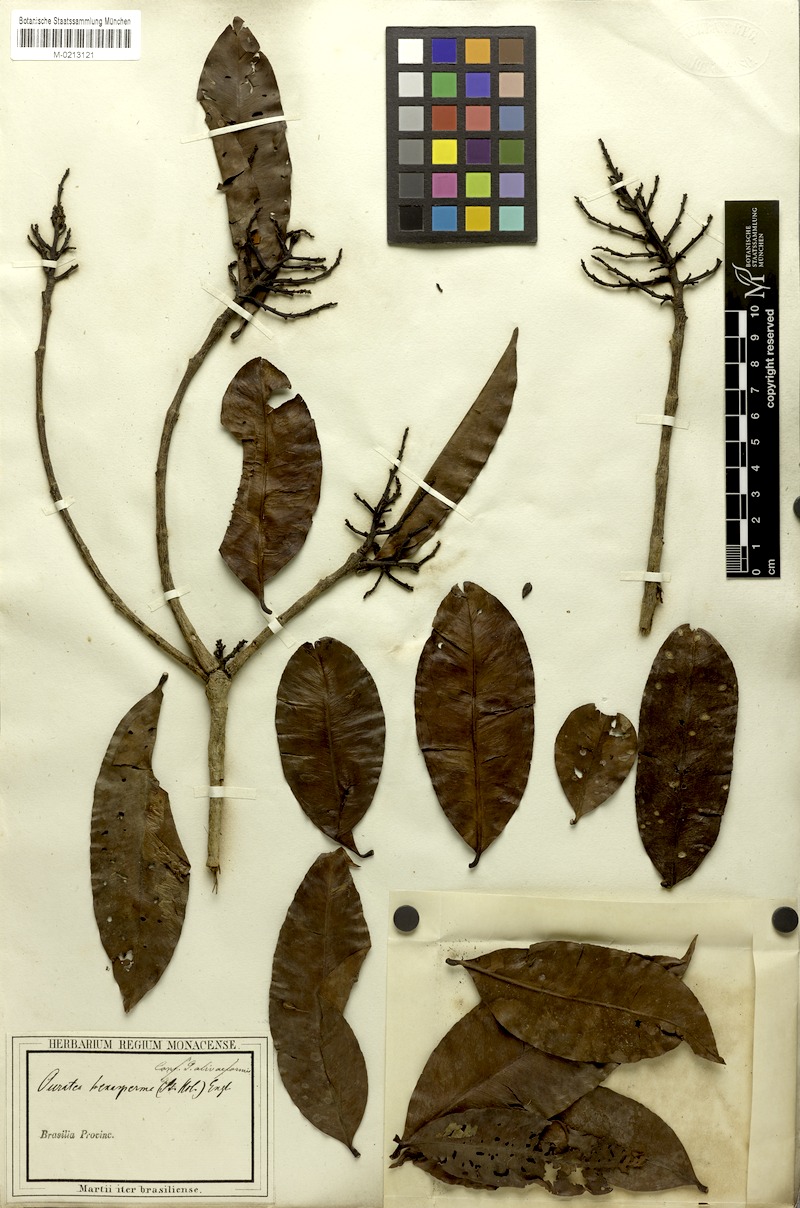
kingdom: Plantae
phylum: Tracheophyta
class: Magnoliopsida
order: Malpighiales
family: Ochnaceae
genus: Ouratea
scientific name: Ouratea hexasperma
